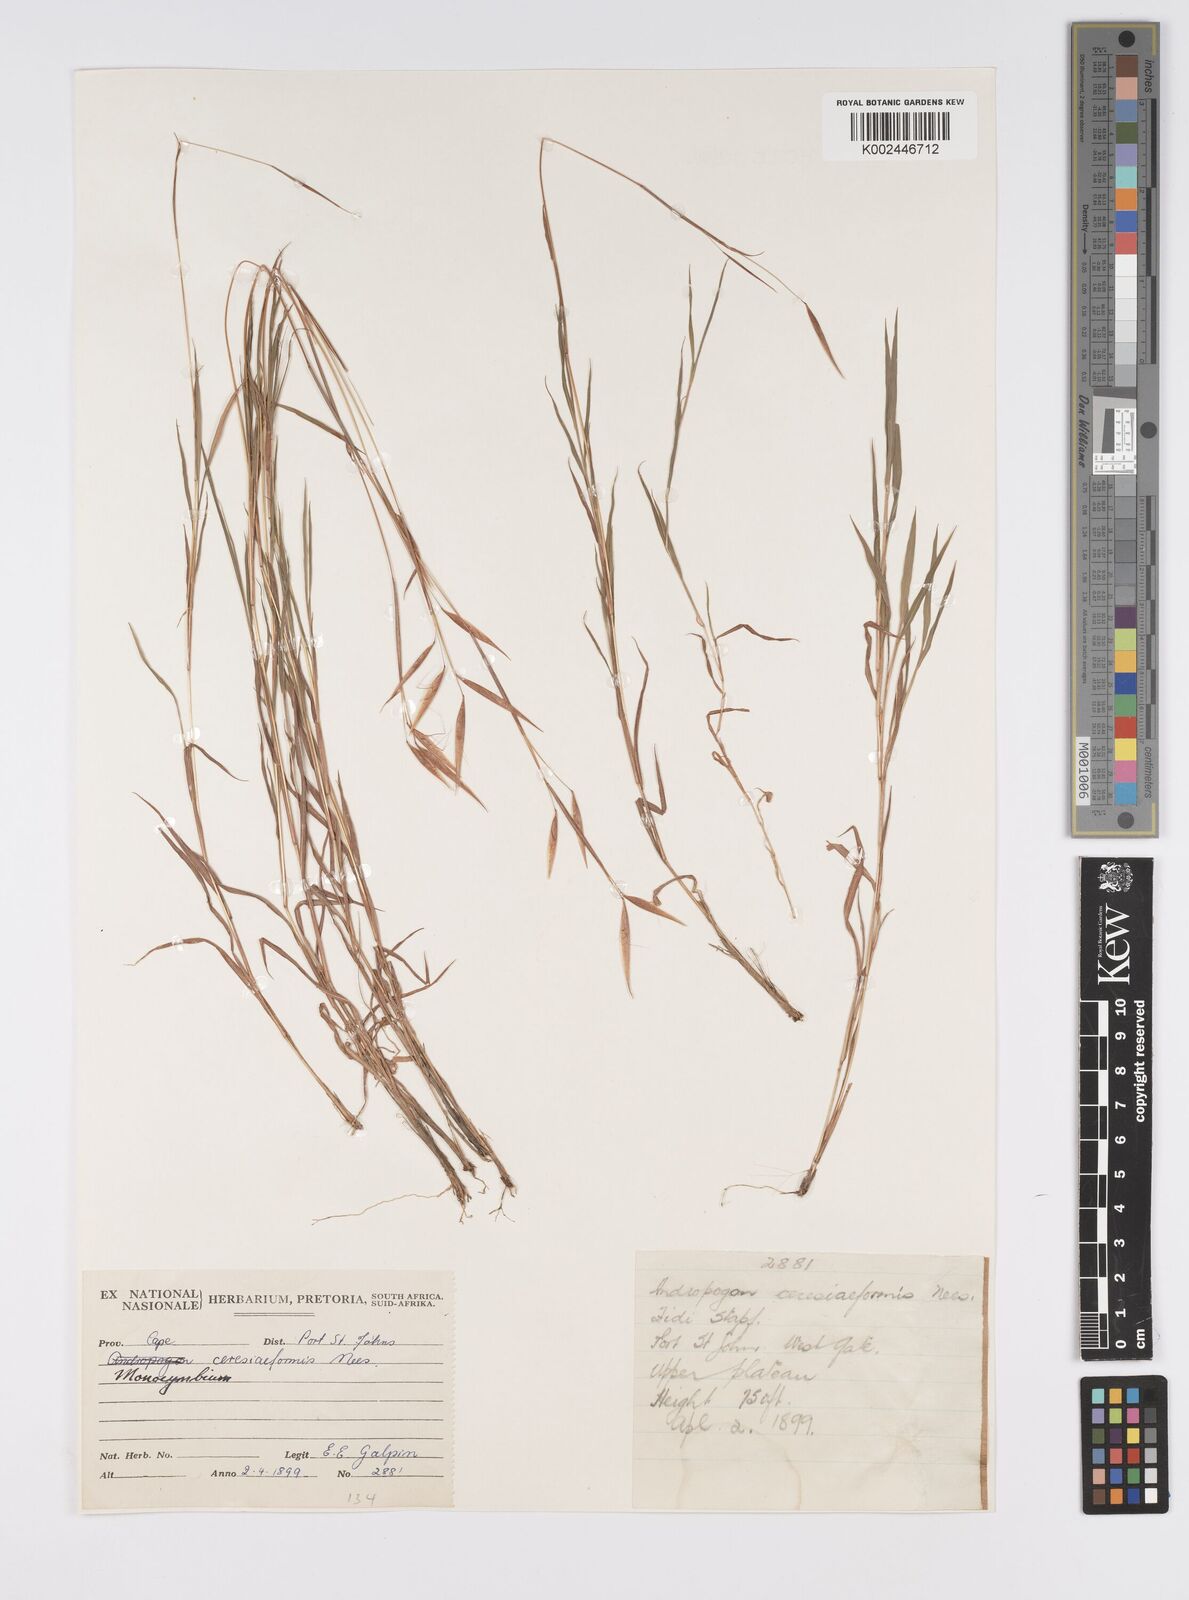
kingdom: Plantae
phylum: Tracheophyta
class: Liliopsida
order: Poales
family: Poaceae
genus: Monocymbium
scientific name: Monocymbium ceresiiforme
